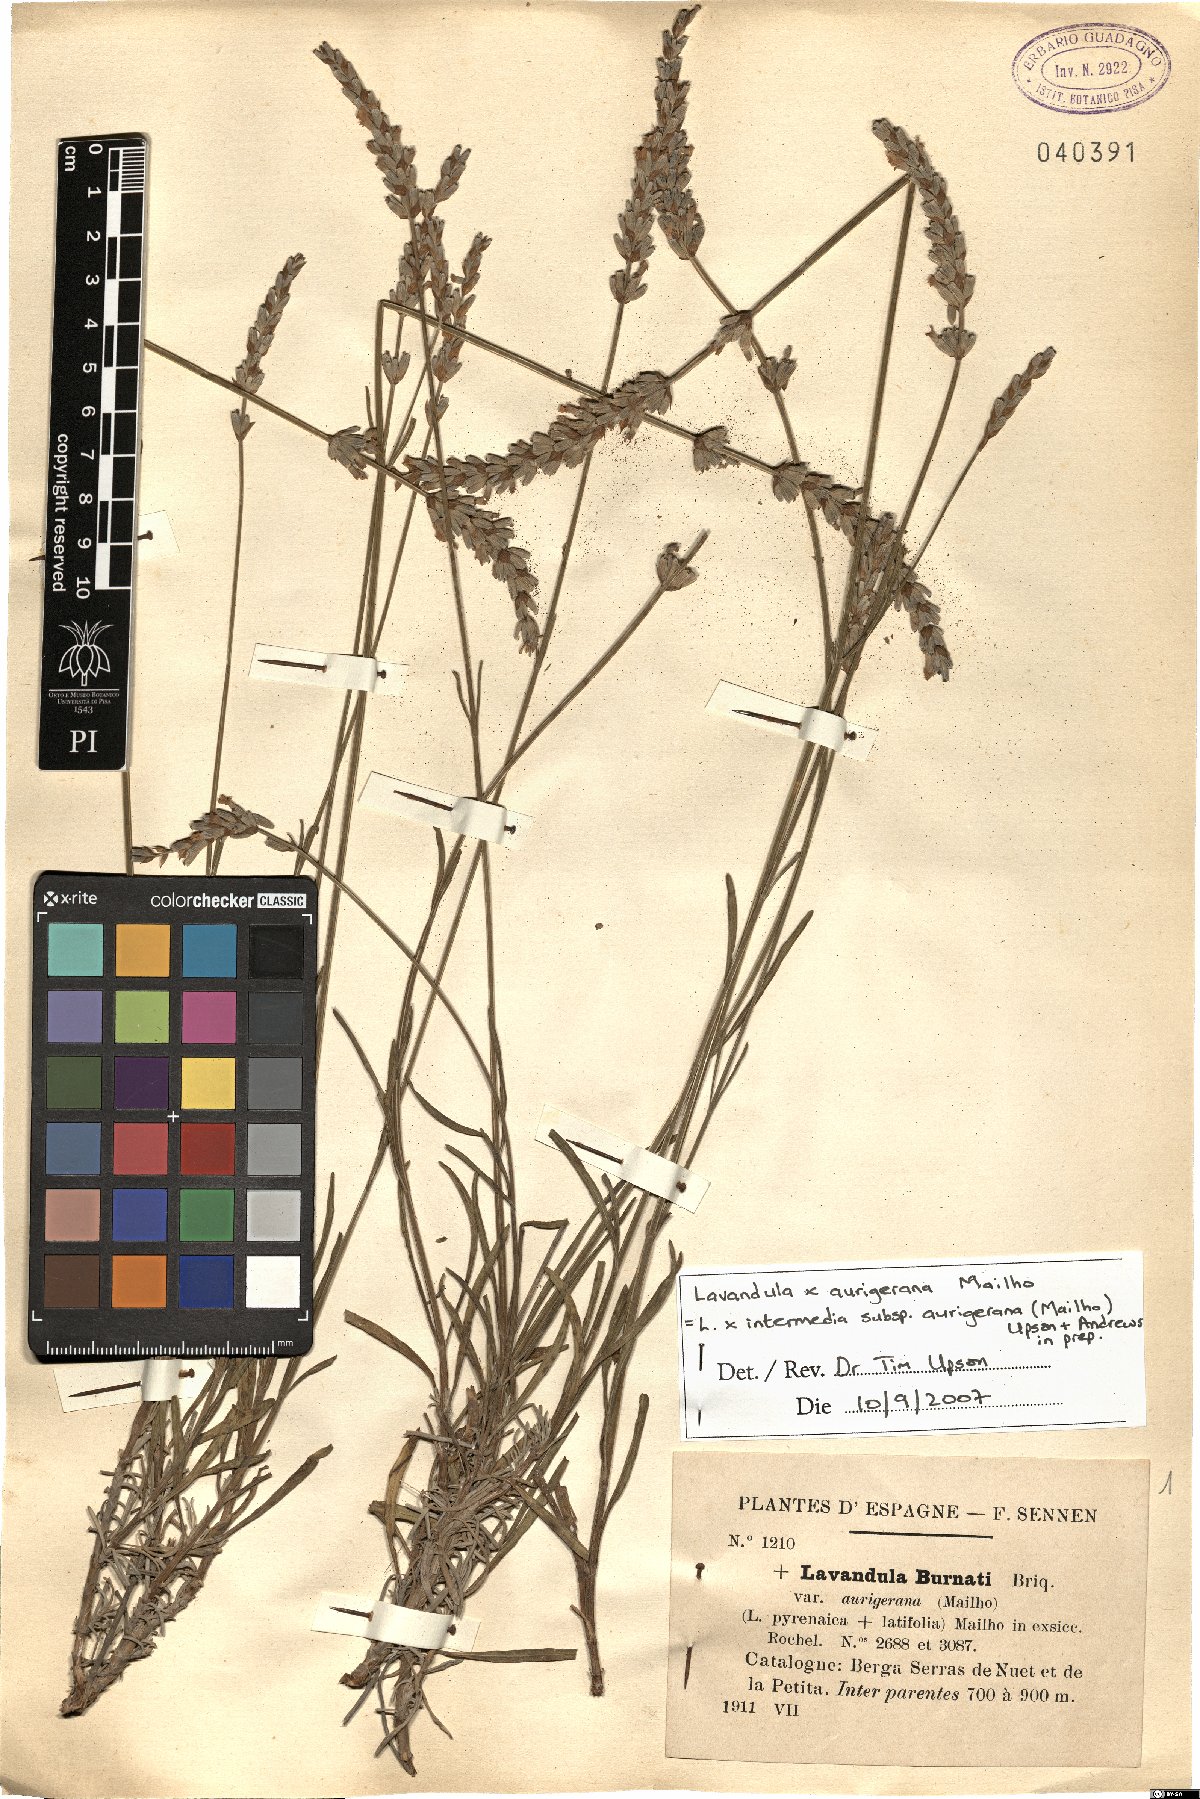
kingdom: Plantae
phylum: Tracheophyta
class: Magnoliopsida
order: Lamiales
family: Lamiaceae
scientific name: Lamiaceae
